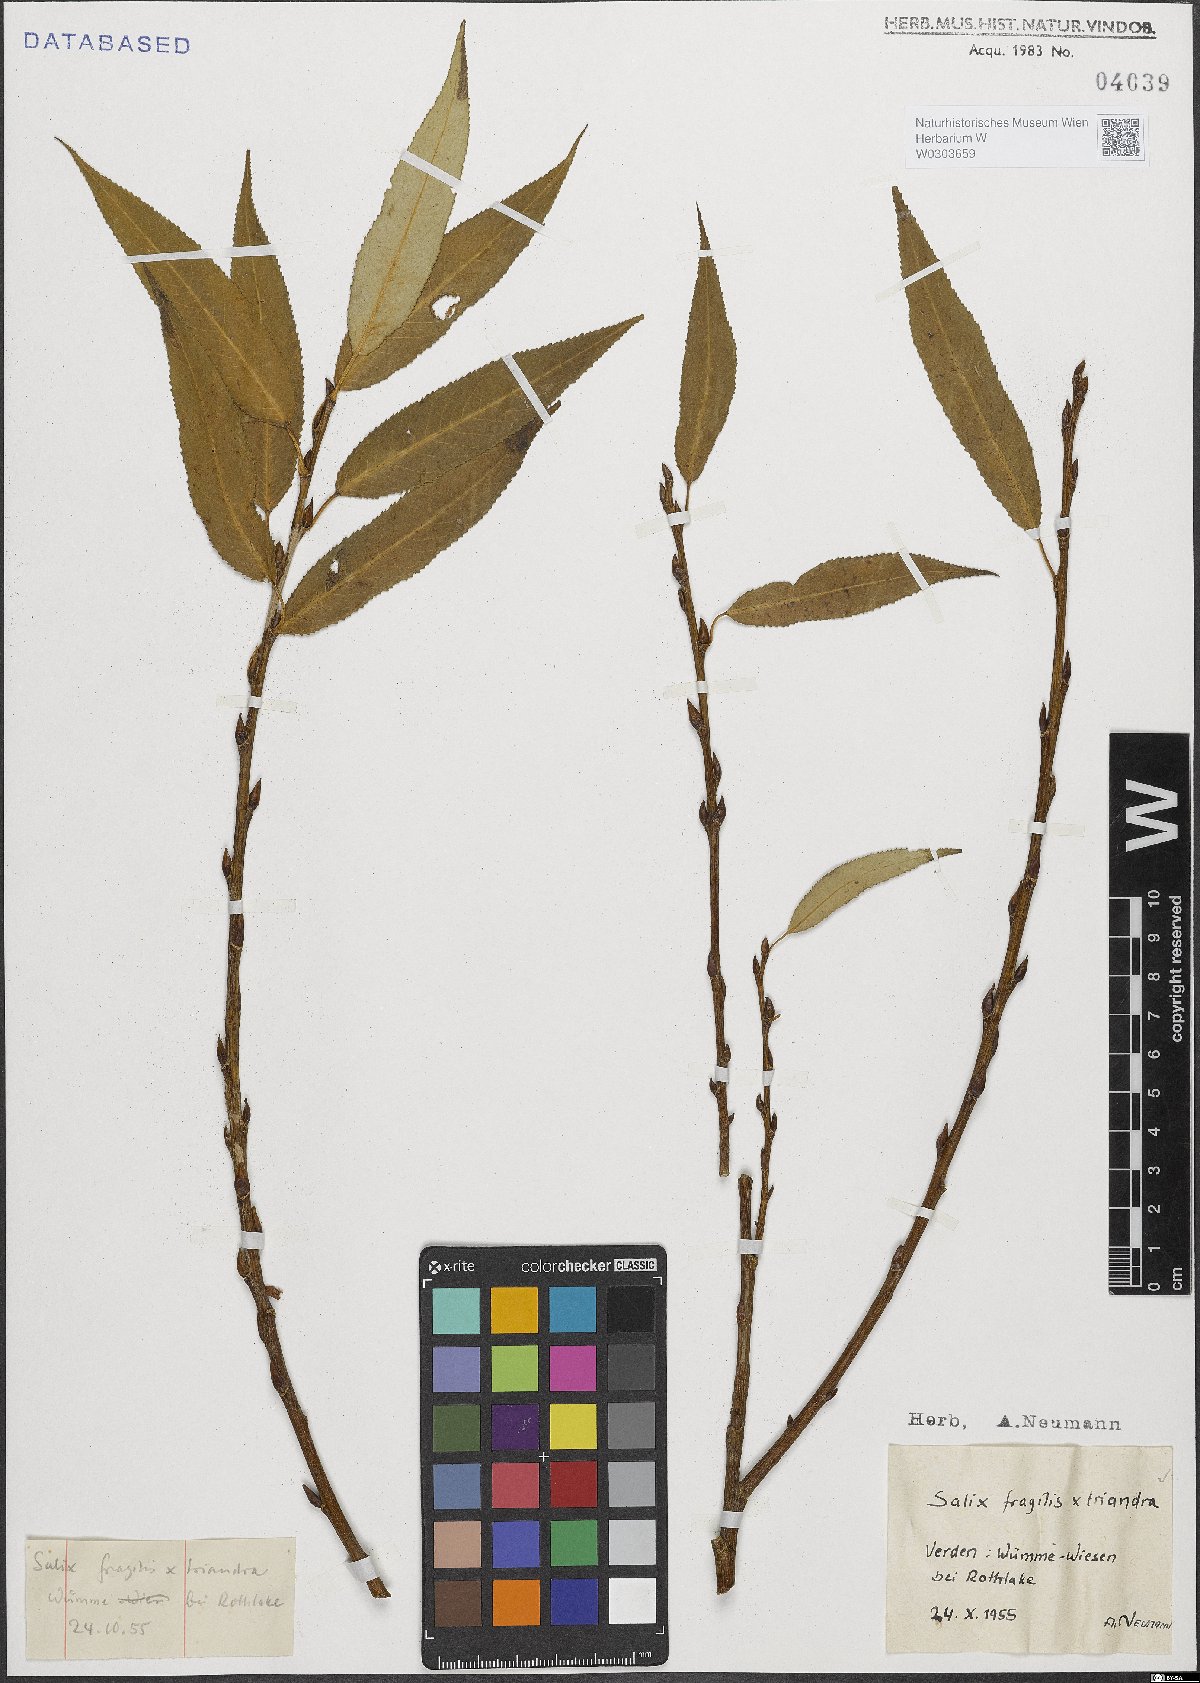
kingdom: Plantae
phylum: Tracheophyta
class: Magnoliopsida
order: Malpighiales
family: Salicaceae
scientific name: Salicaceae
